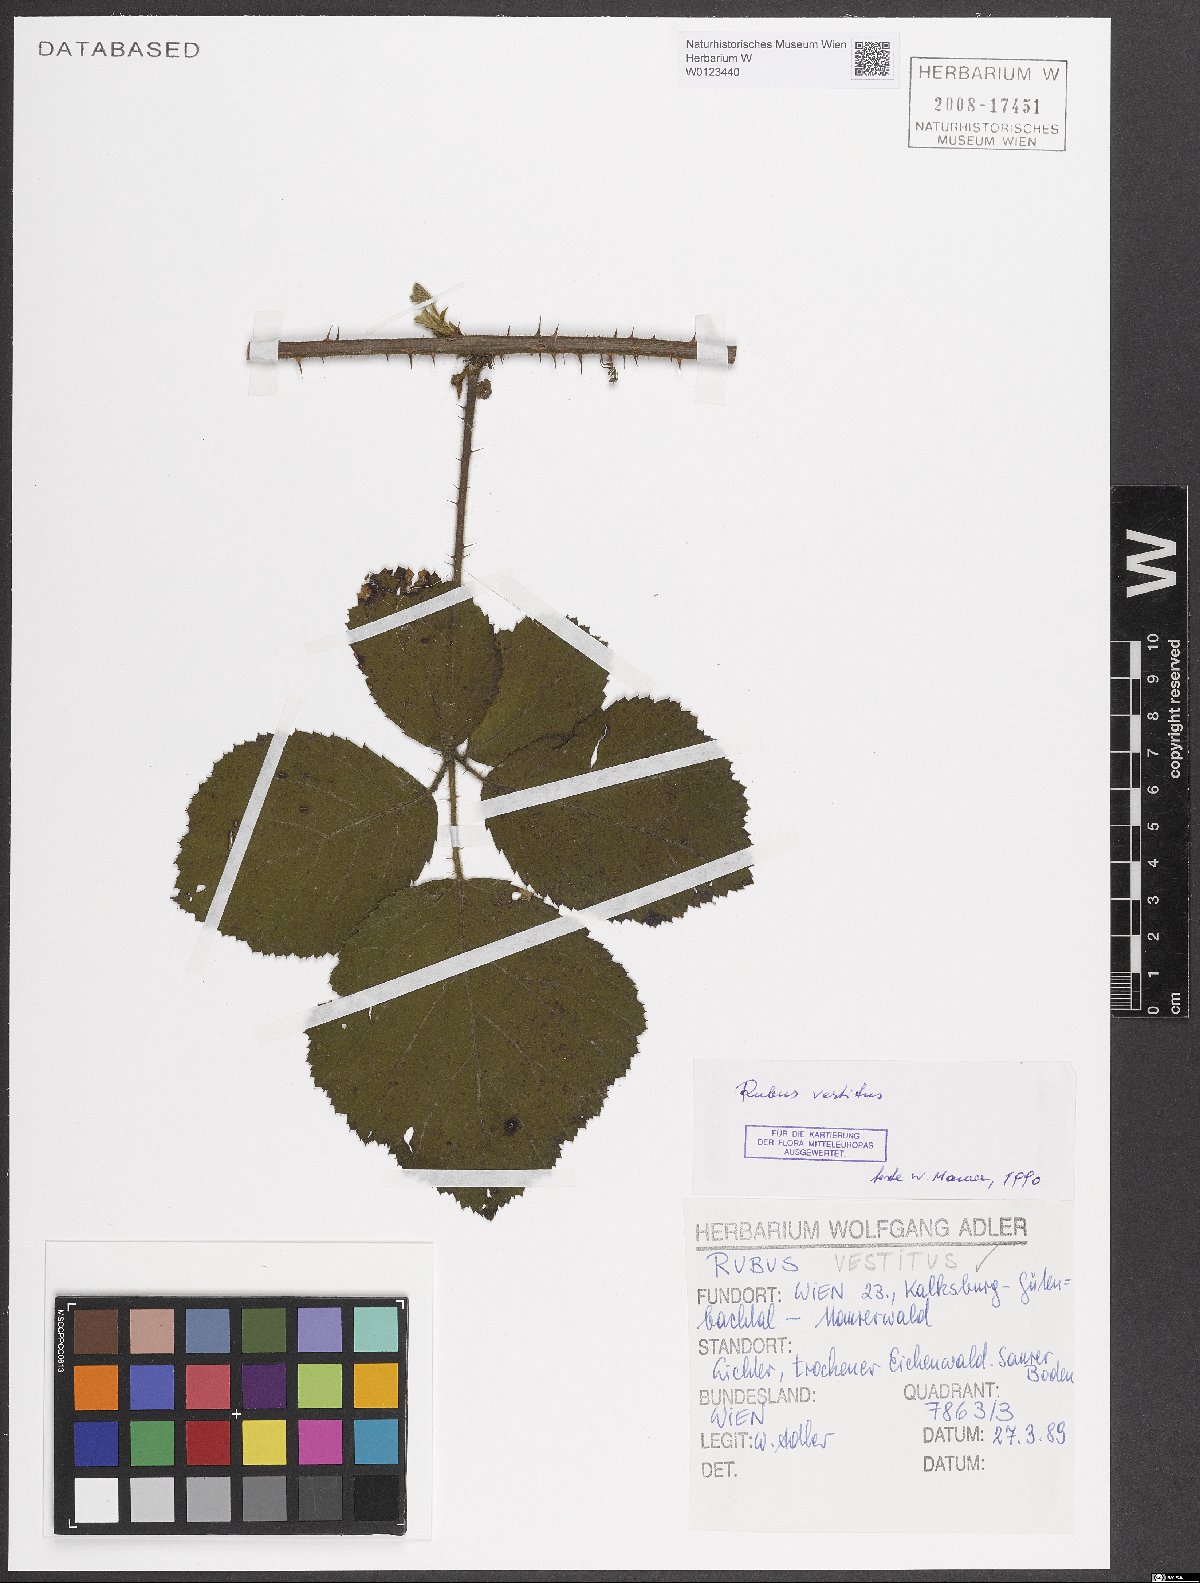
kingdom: Plantae
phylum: Tracheophyta
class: Magnoliopsida
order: Rosales
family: Rosaceae
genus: Rubus
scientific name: Rubus vestitus
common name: European blackberry
